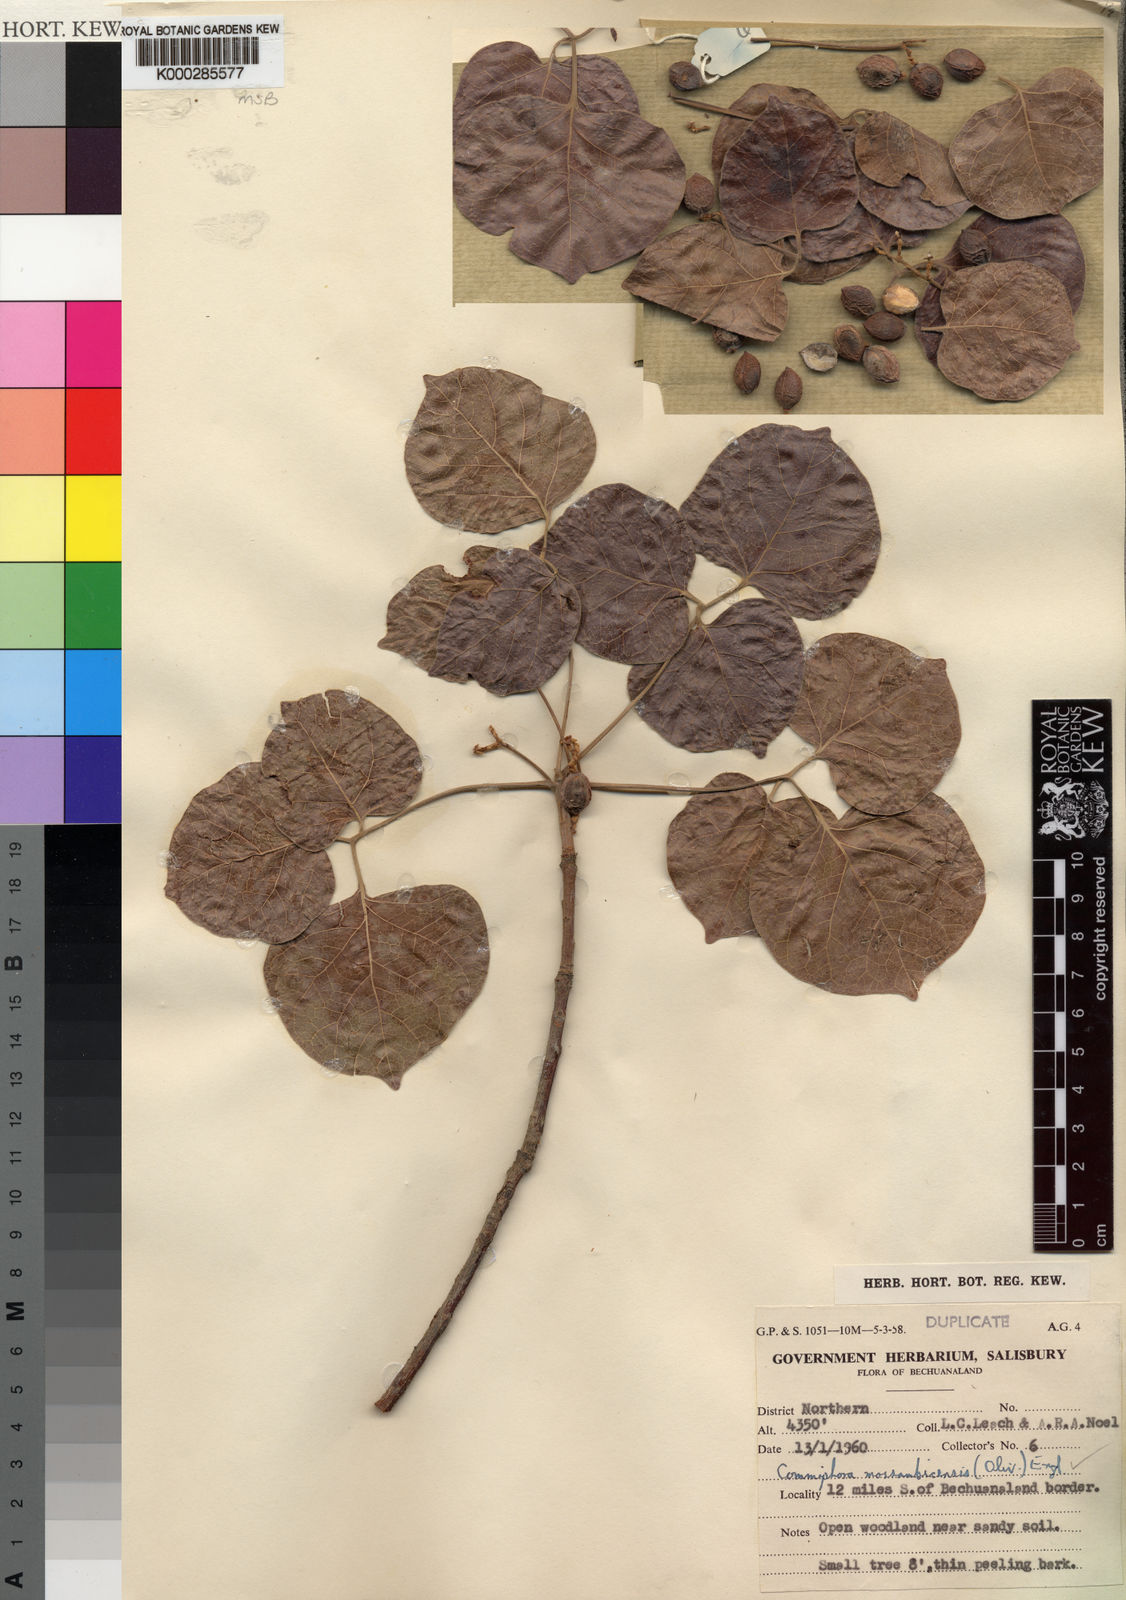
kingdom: Plantae
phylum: Tracheophyta
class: Magnoliopsida
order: Sapindales
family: Burseraceae
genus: Commiphora
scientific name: Commiphora mossambicensis
